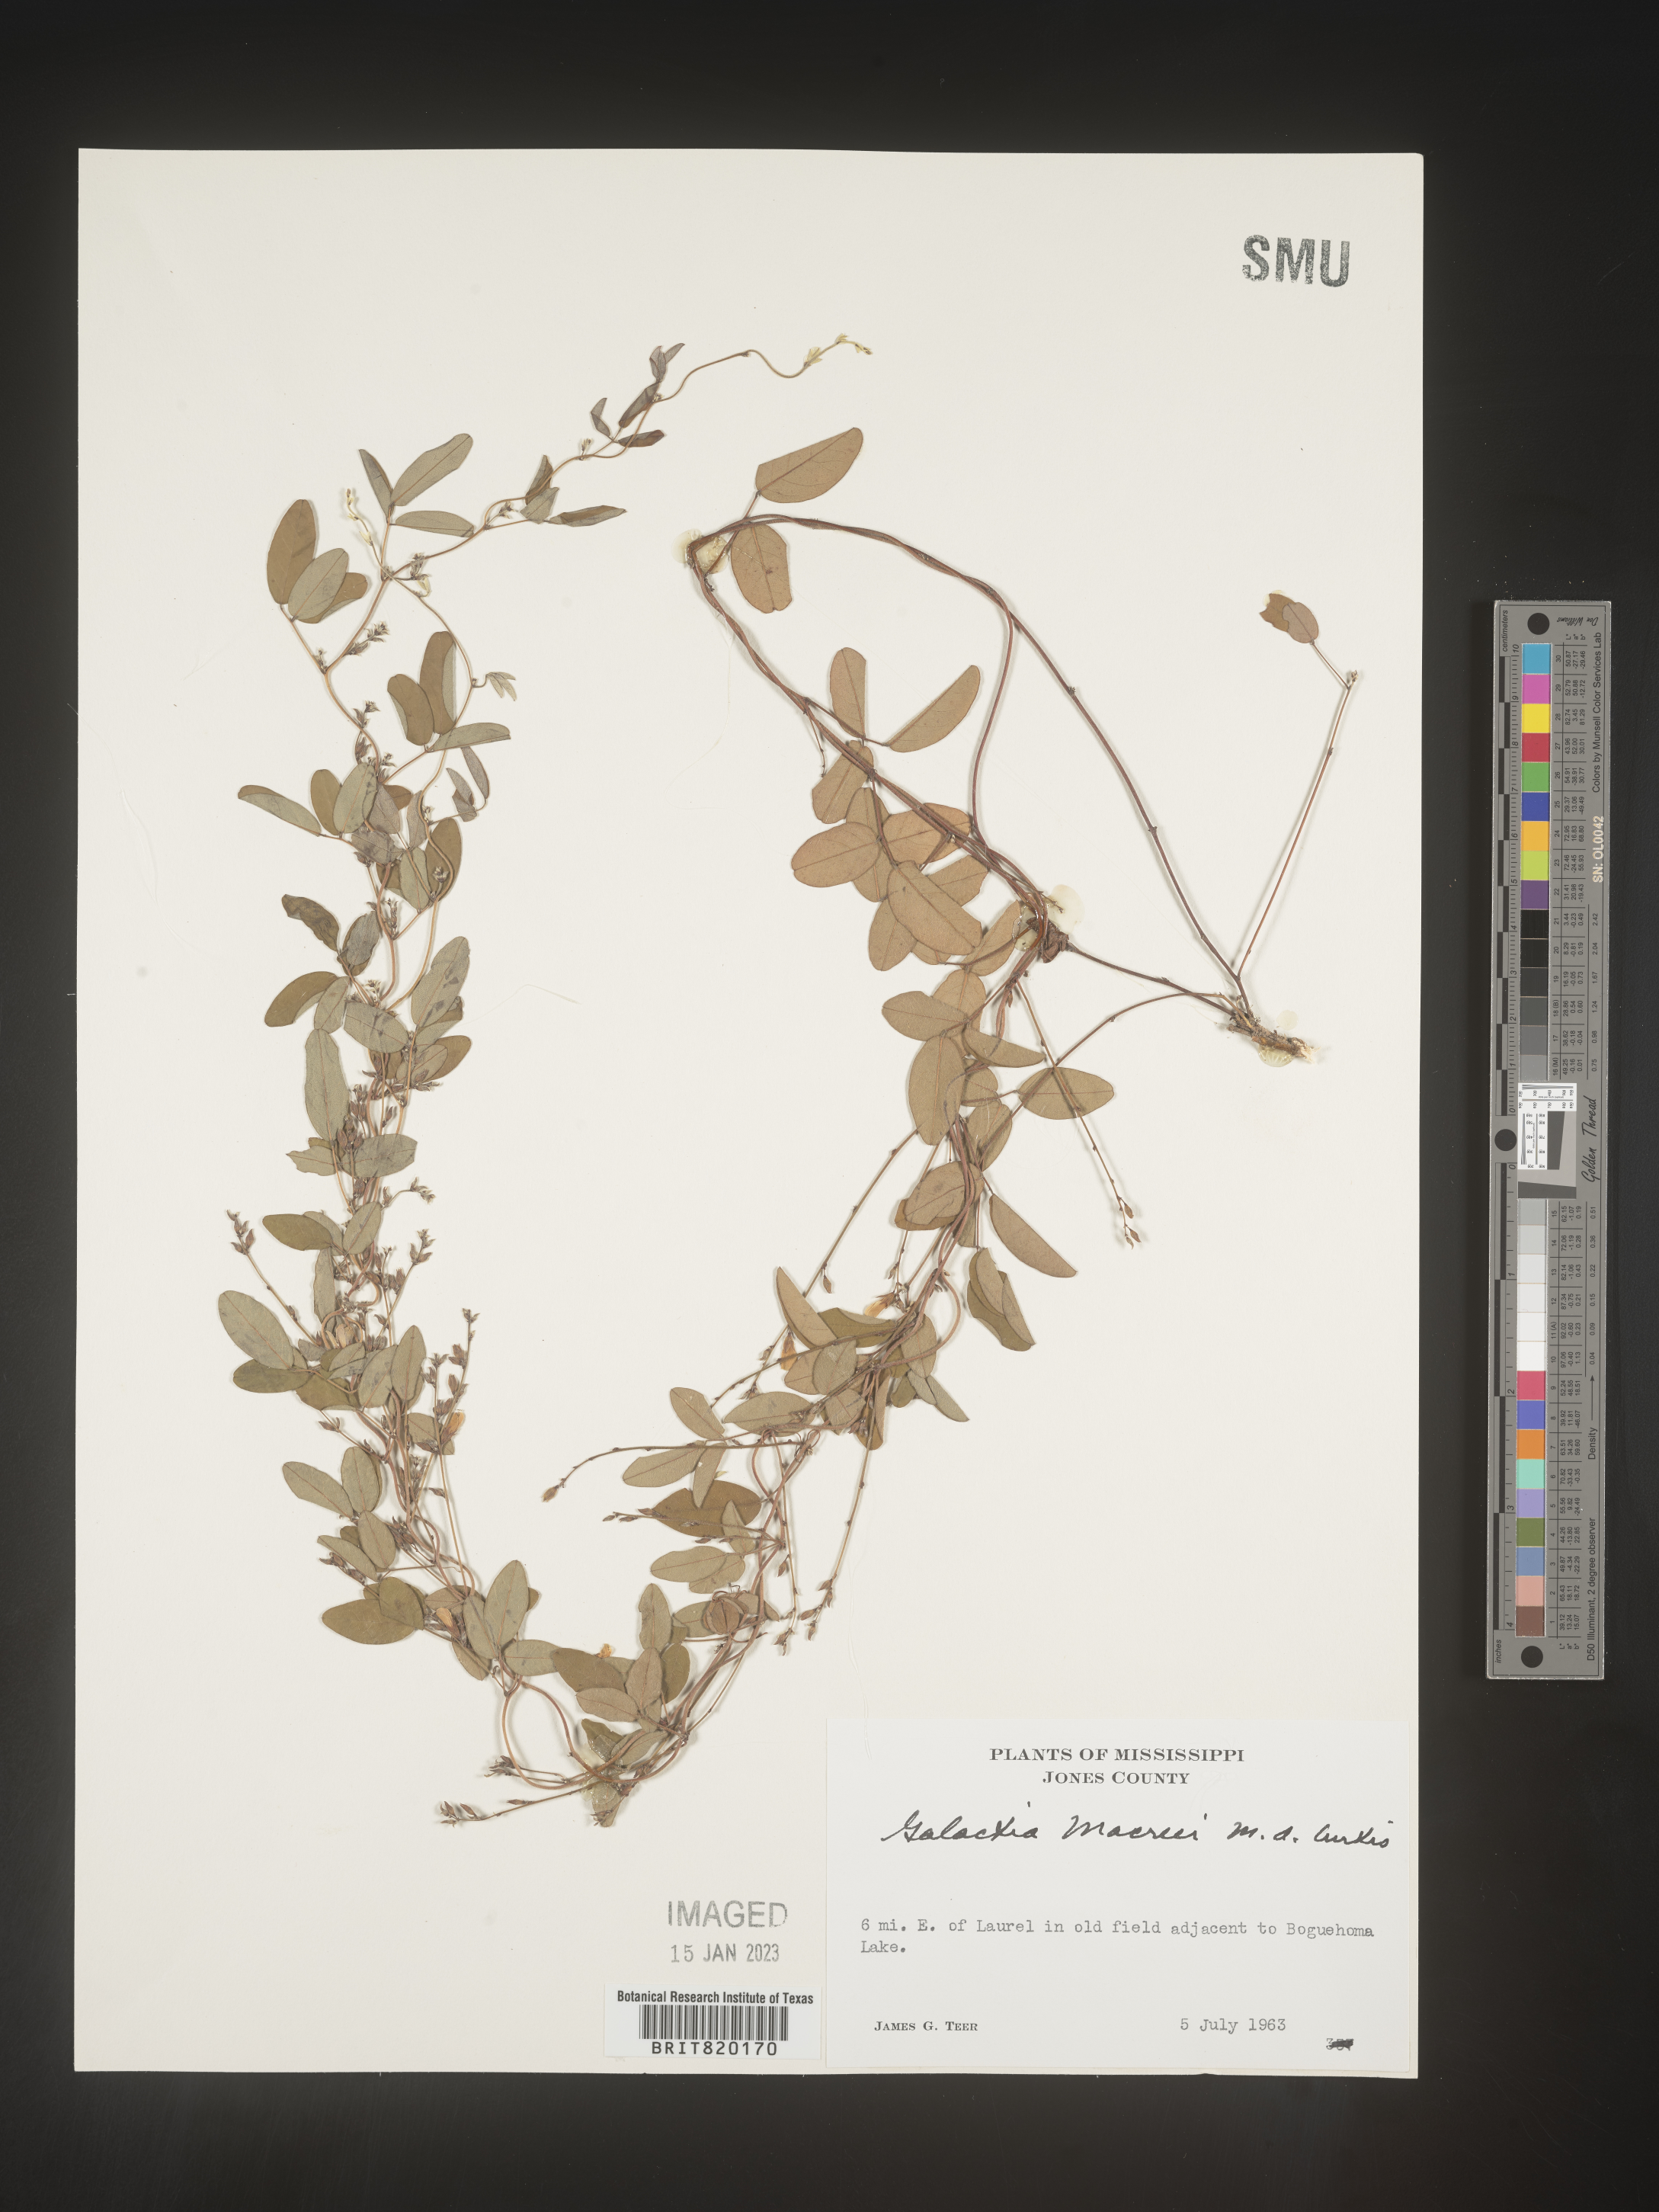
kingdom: Plantae
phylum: Tracheophyta
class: Magnoliopsida
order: Fabales
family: Fabaceae
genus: Galactia
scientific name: Galactia volubilis
